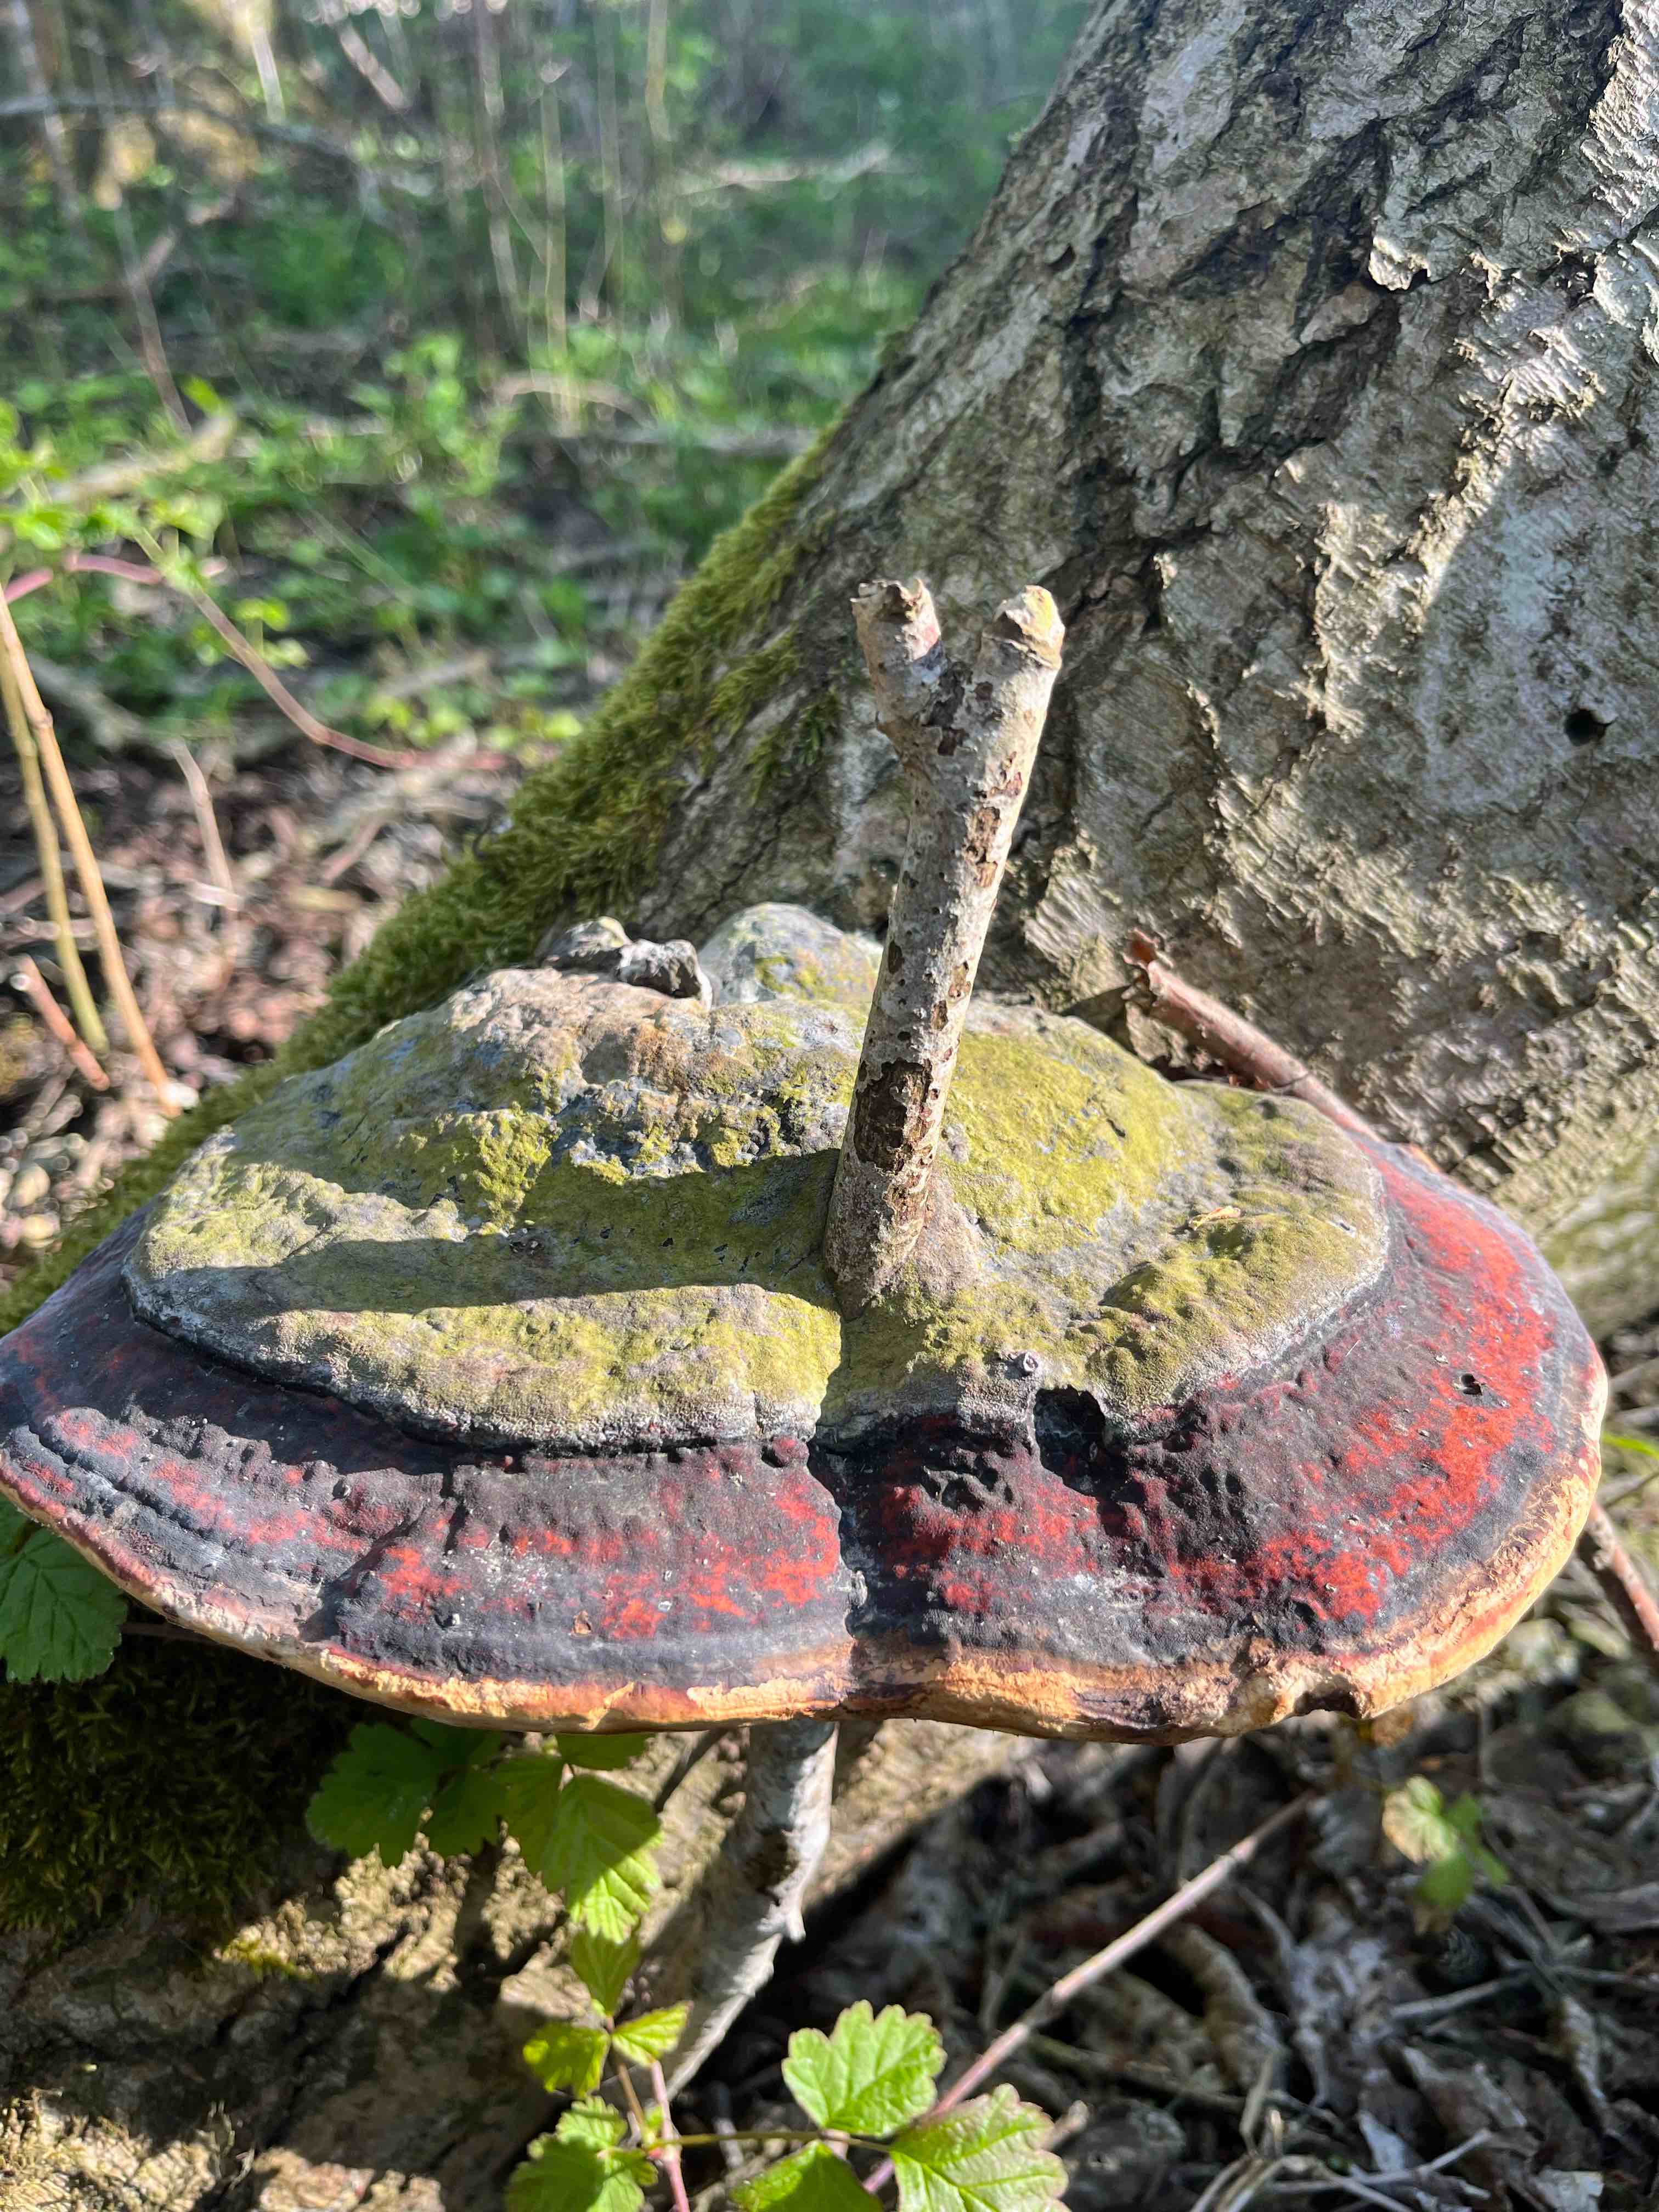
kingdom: Fungi
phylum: Basidiomycota
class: Agaricomycetes
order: Polyporales
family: Fomitopsidaceae
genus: Fomitopsis
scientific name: Fomitopsis pinicola
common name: randbæltet hovporesvamp
